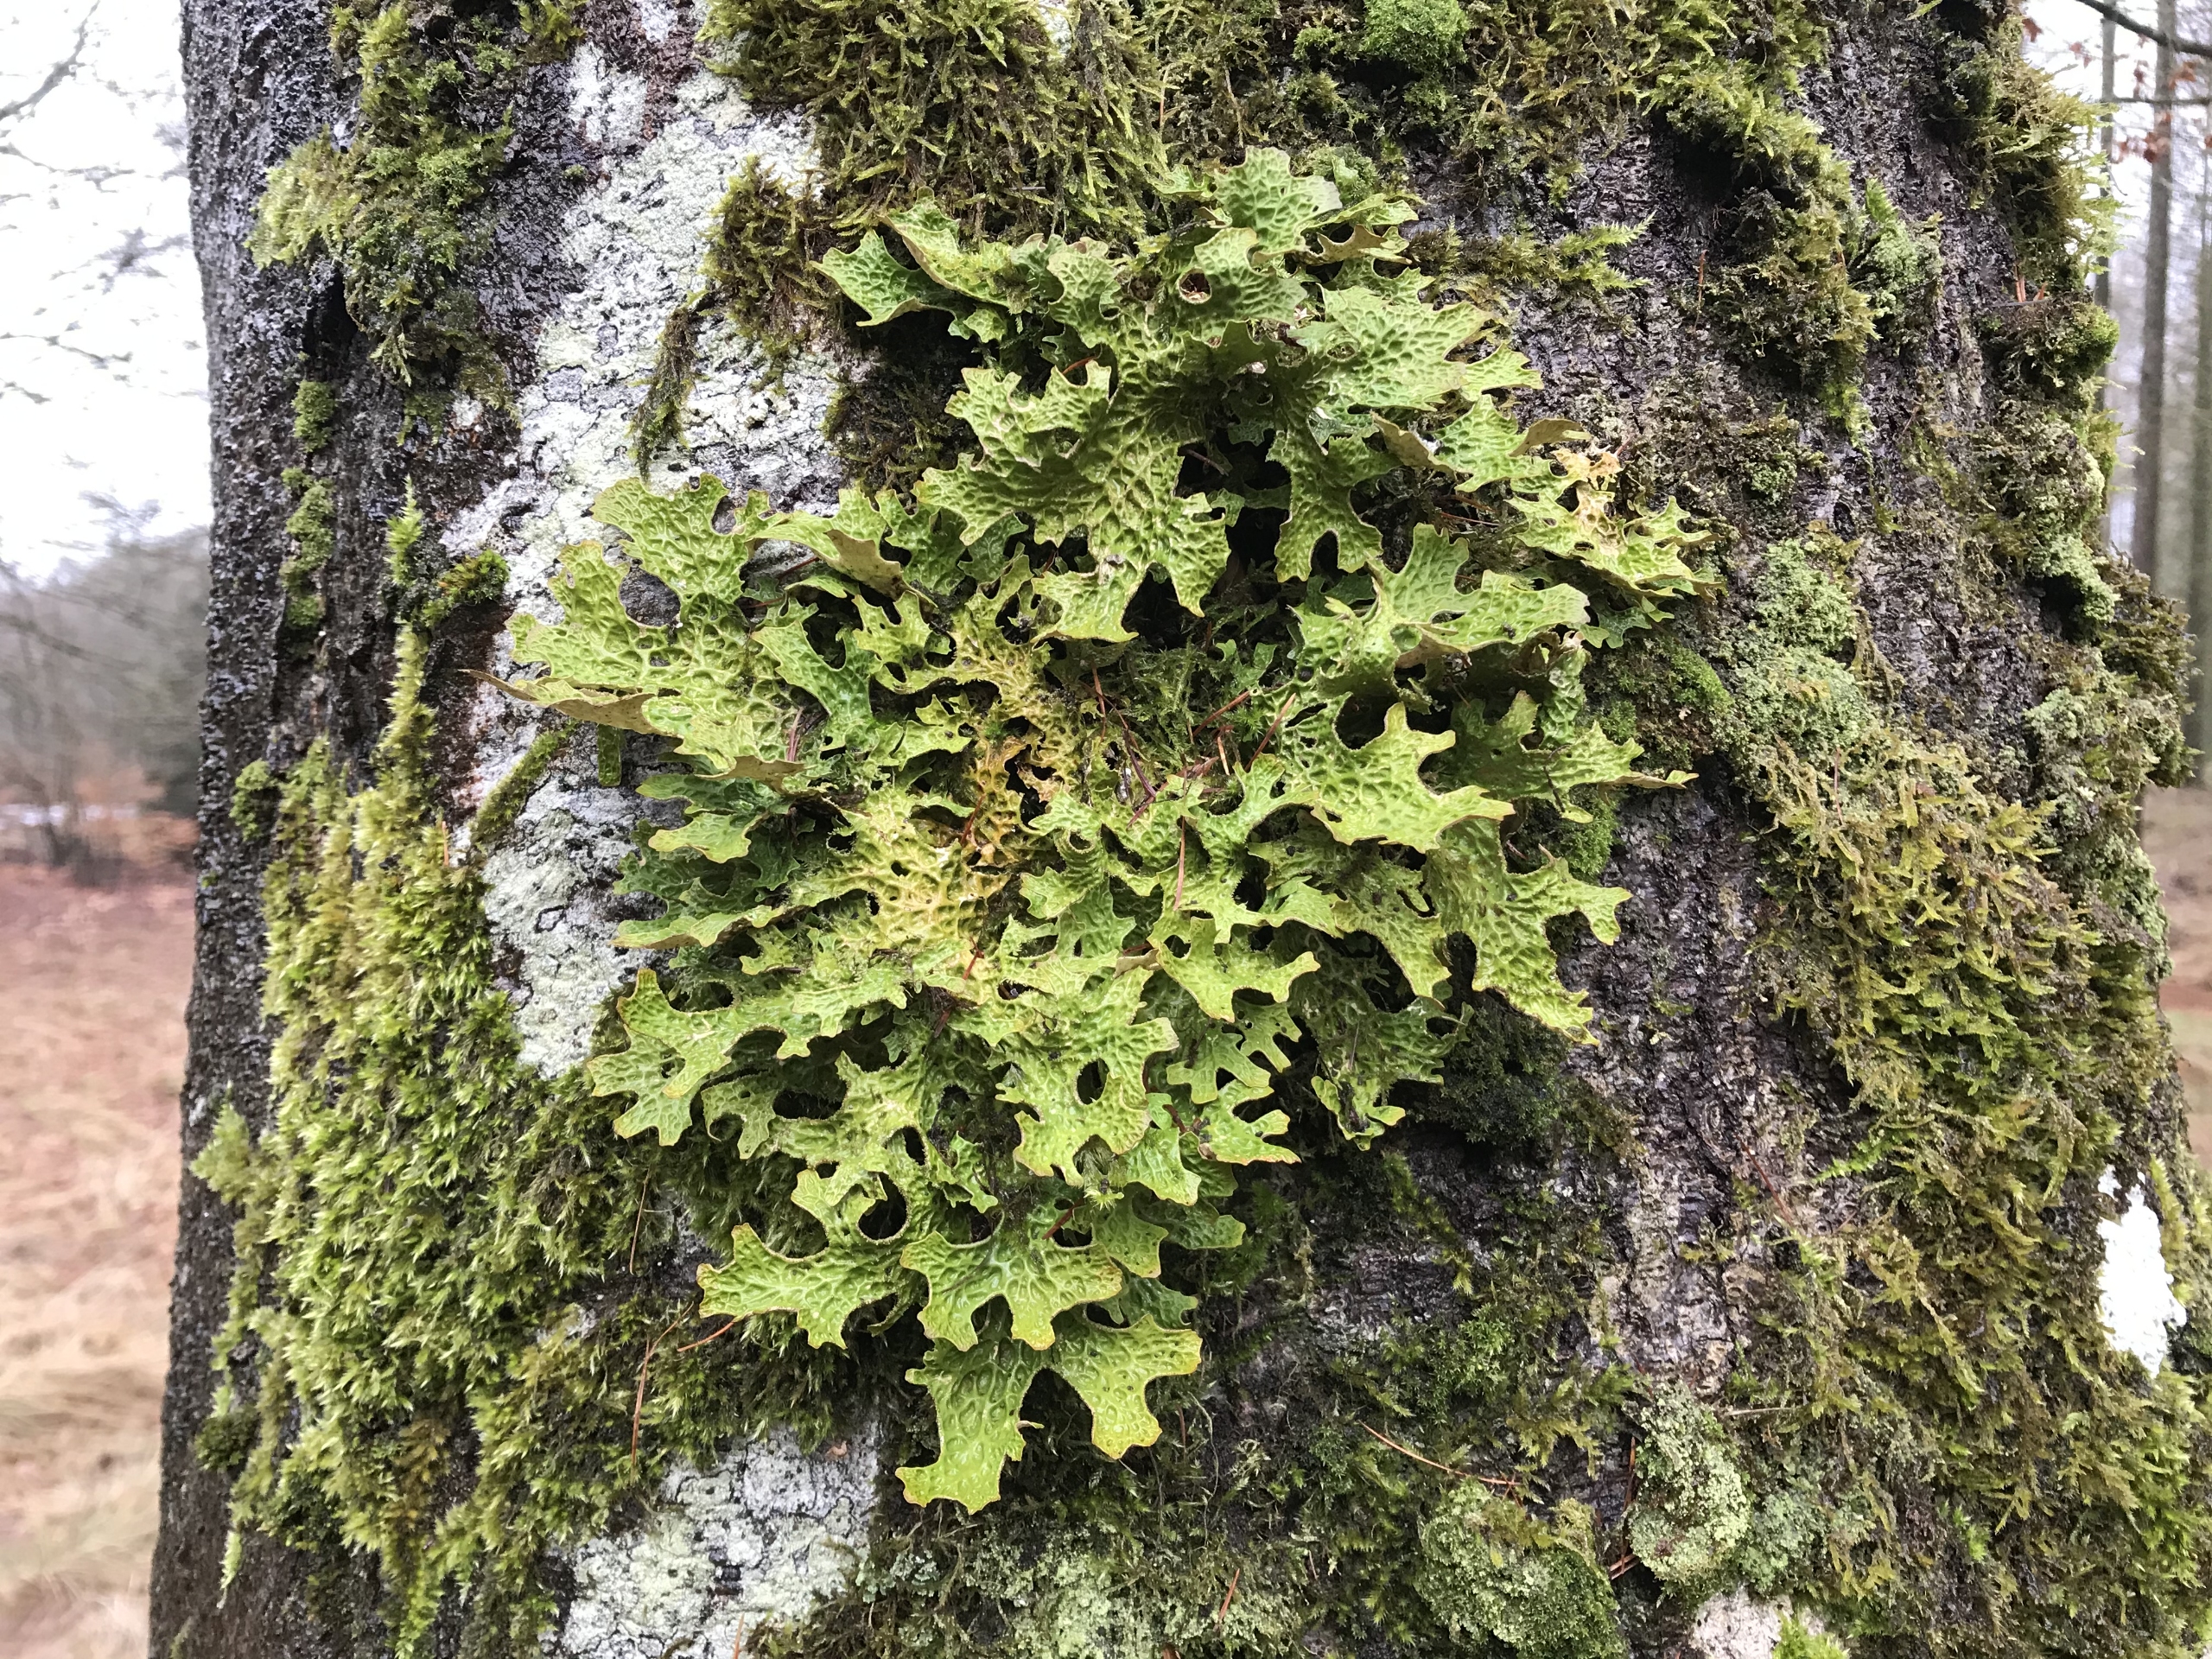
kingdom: Fungi
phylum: Ascomycota
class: Lecanoromycetes
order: Peltigerales
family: Lobariaceae
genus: Lobaria
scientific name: Lobaria pulmonaria
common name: Almindelig lungelav
